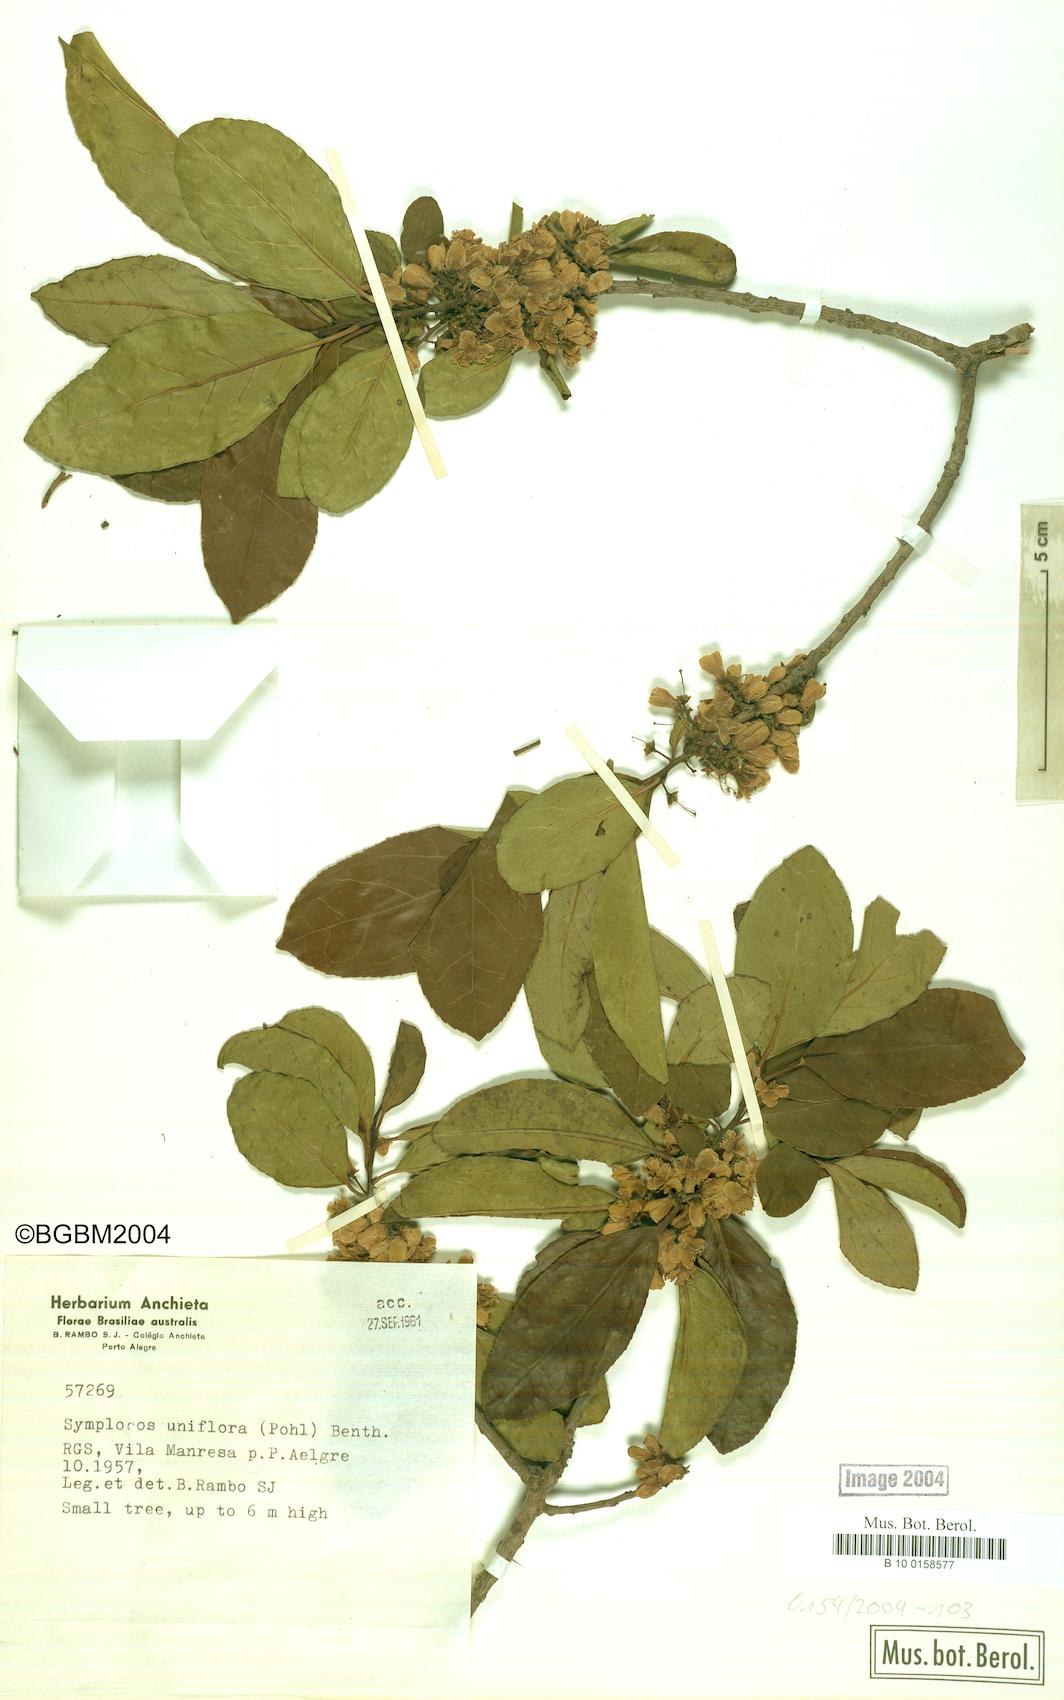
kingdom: Plantae
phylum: Tracheophyta
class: Magnoliopsida
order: Ericales
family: Symplocaceae
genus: Symplocos
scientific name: Symplocos uniflora
